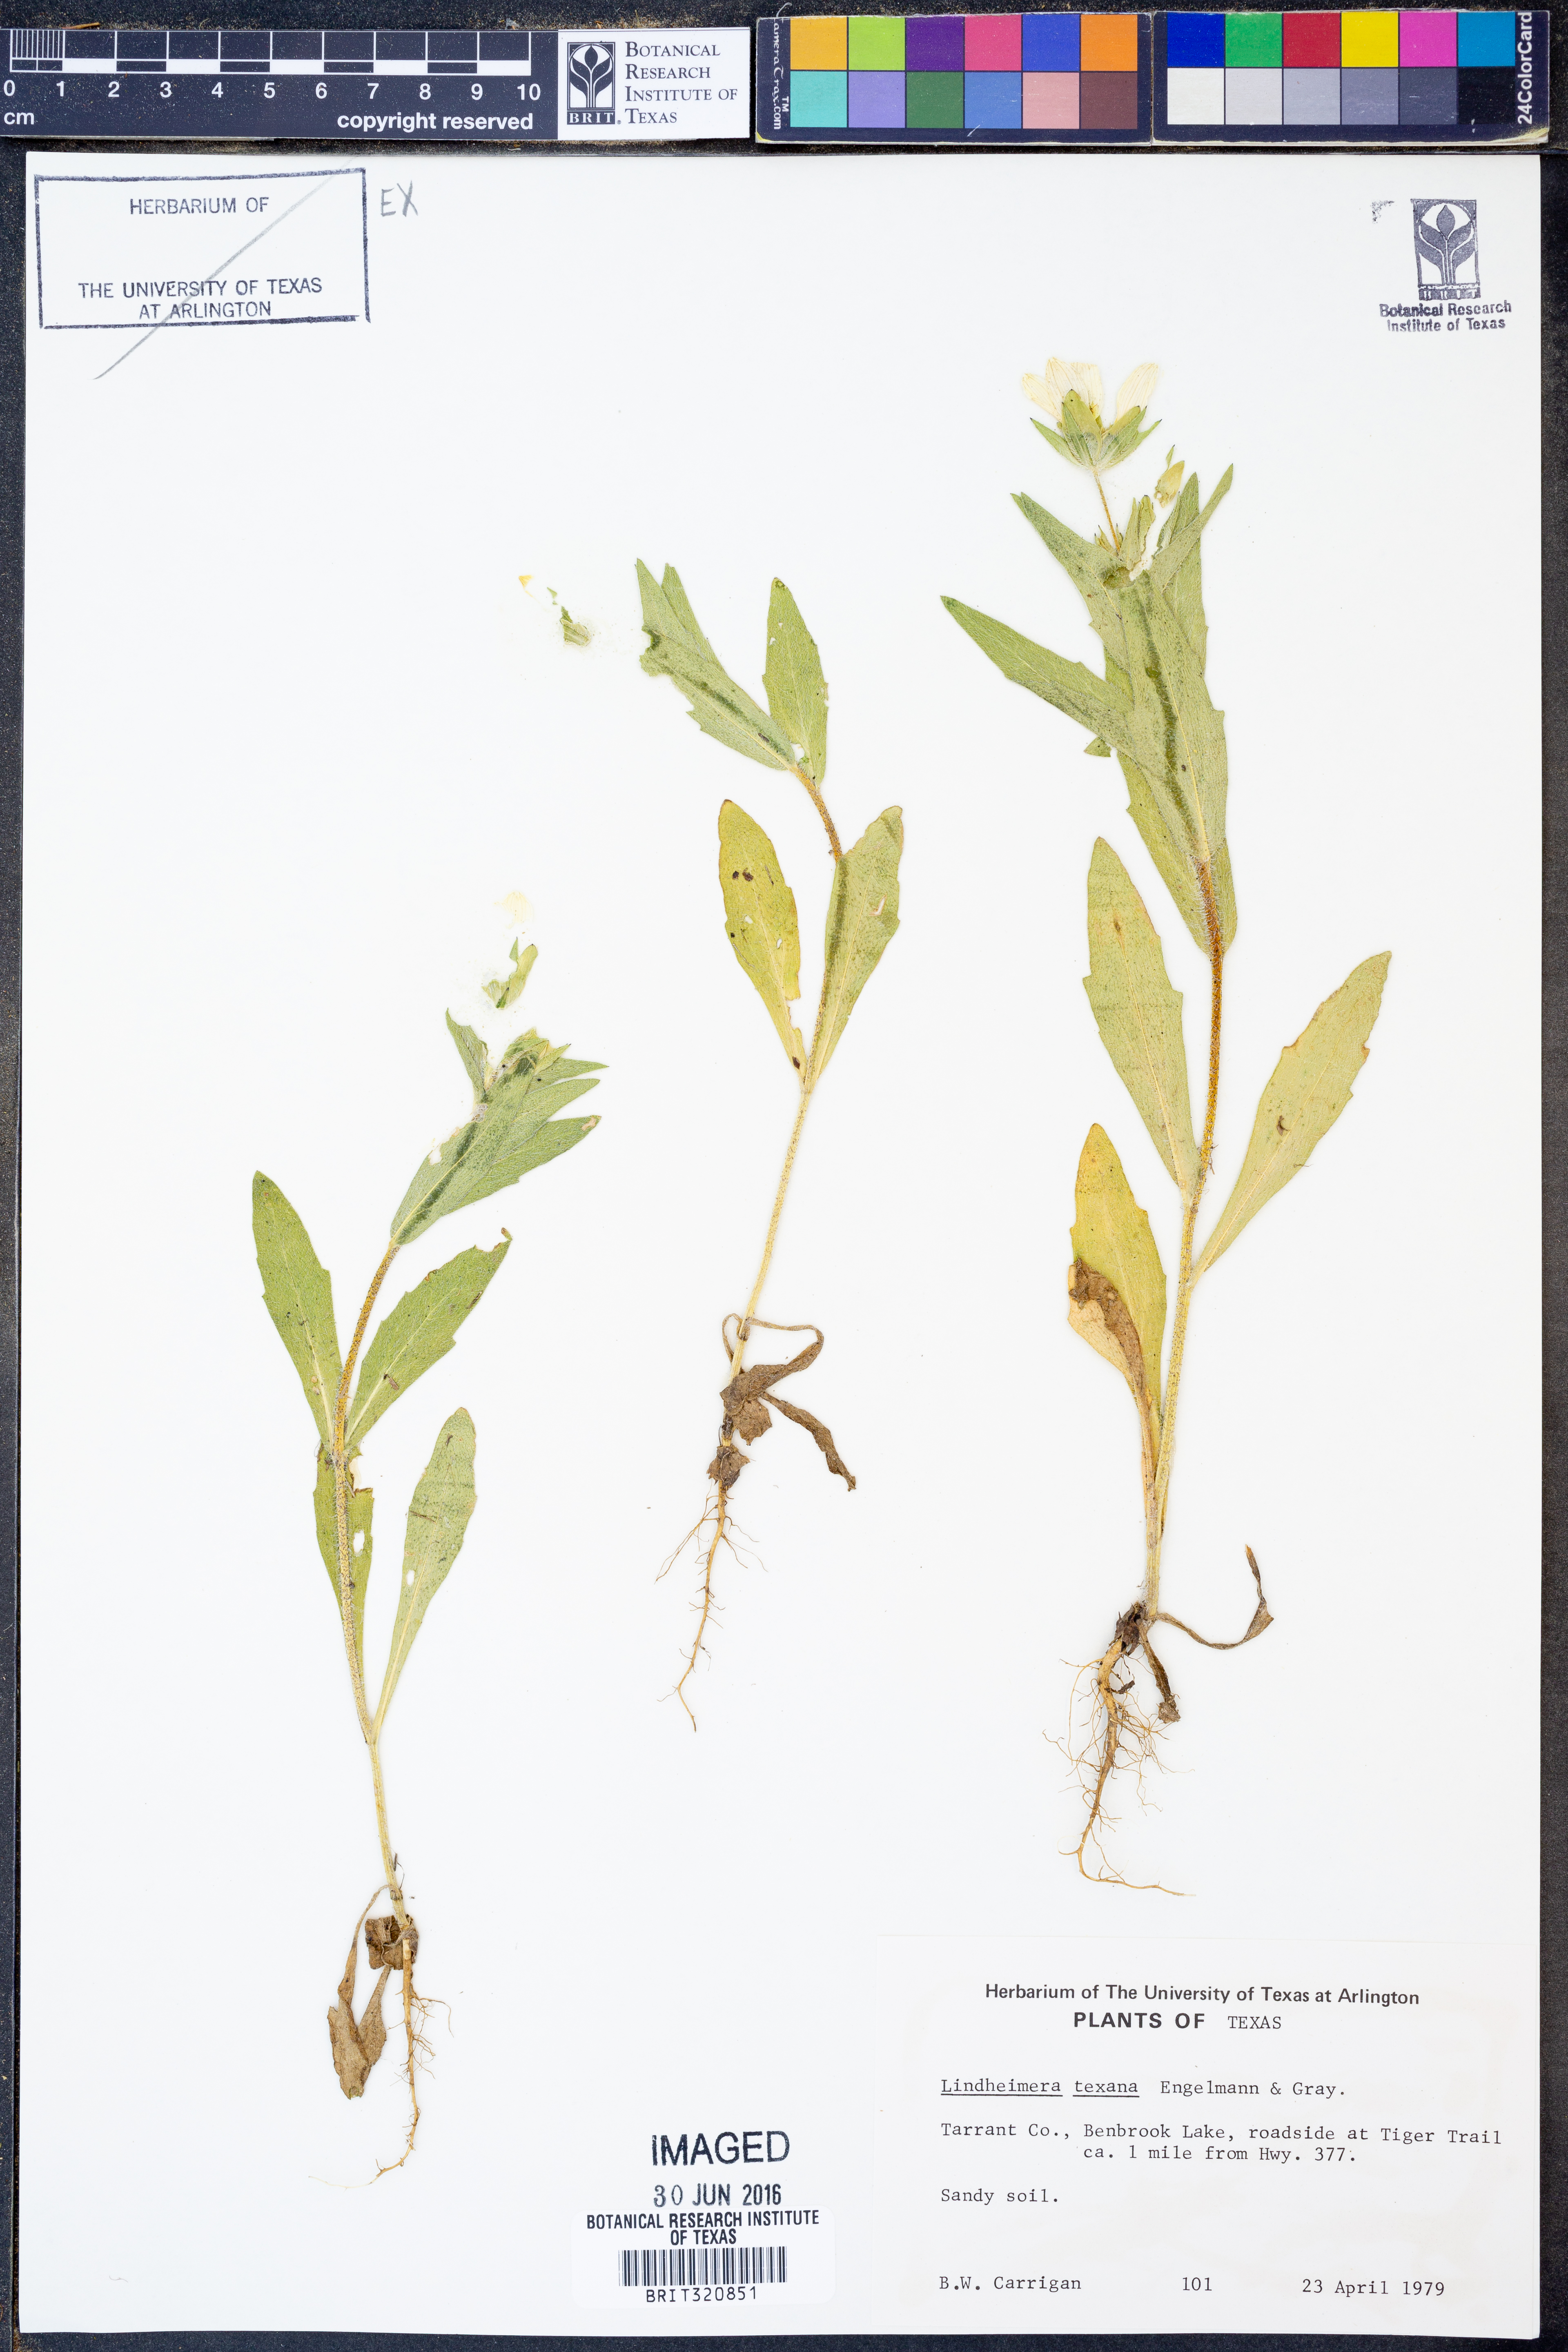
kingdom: Plantae
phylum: Tracheophyta
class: Magnoliopsida
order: Asterales
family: Asteraceae
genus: Lindheimera
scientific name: Lindheimera texana
